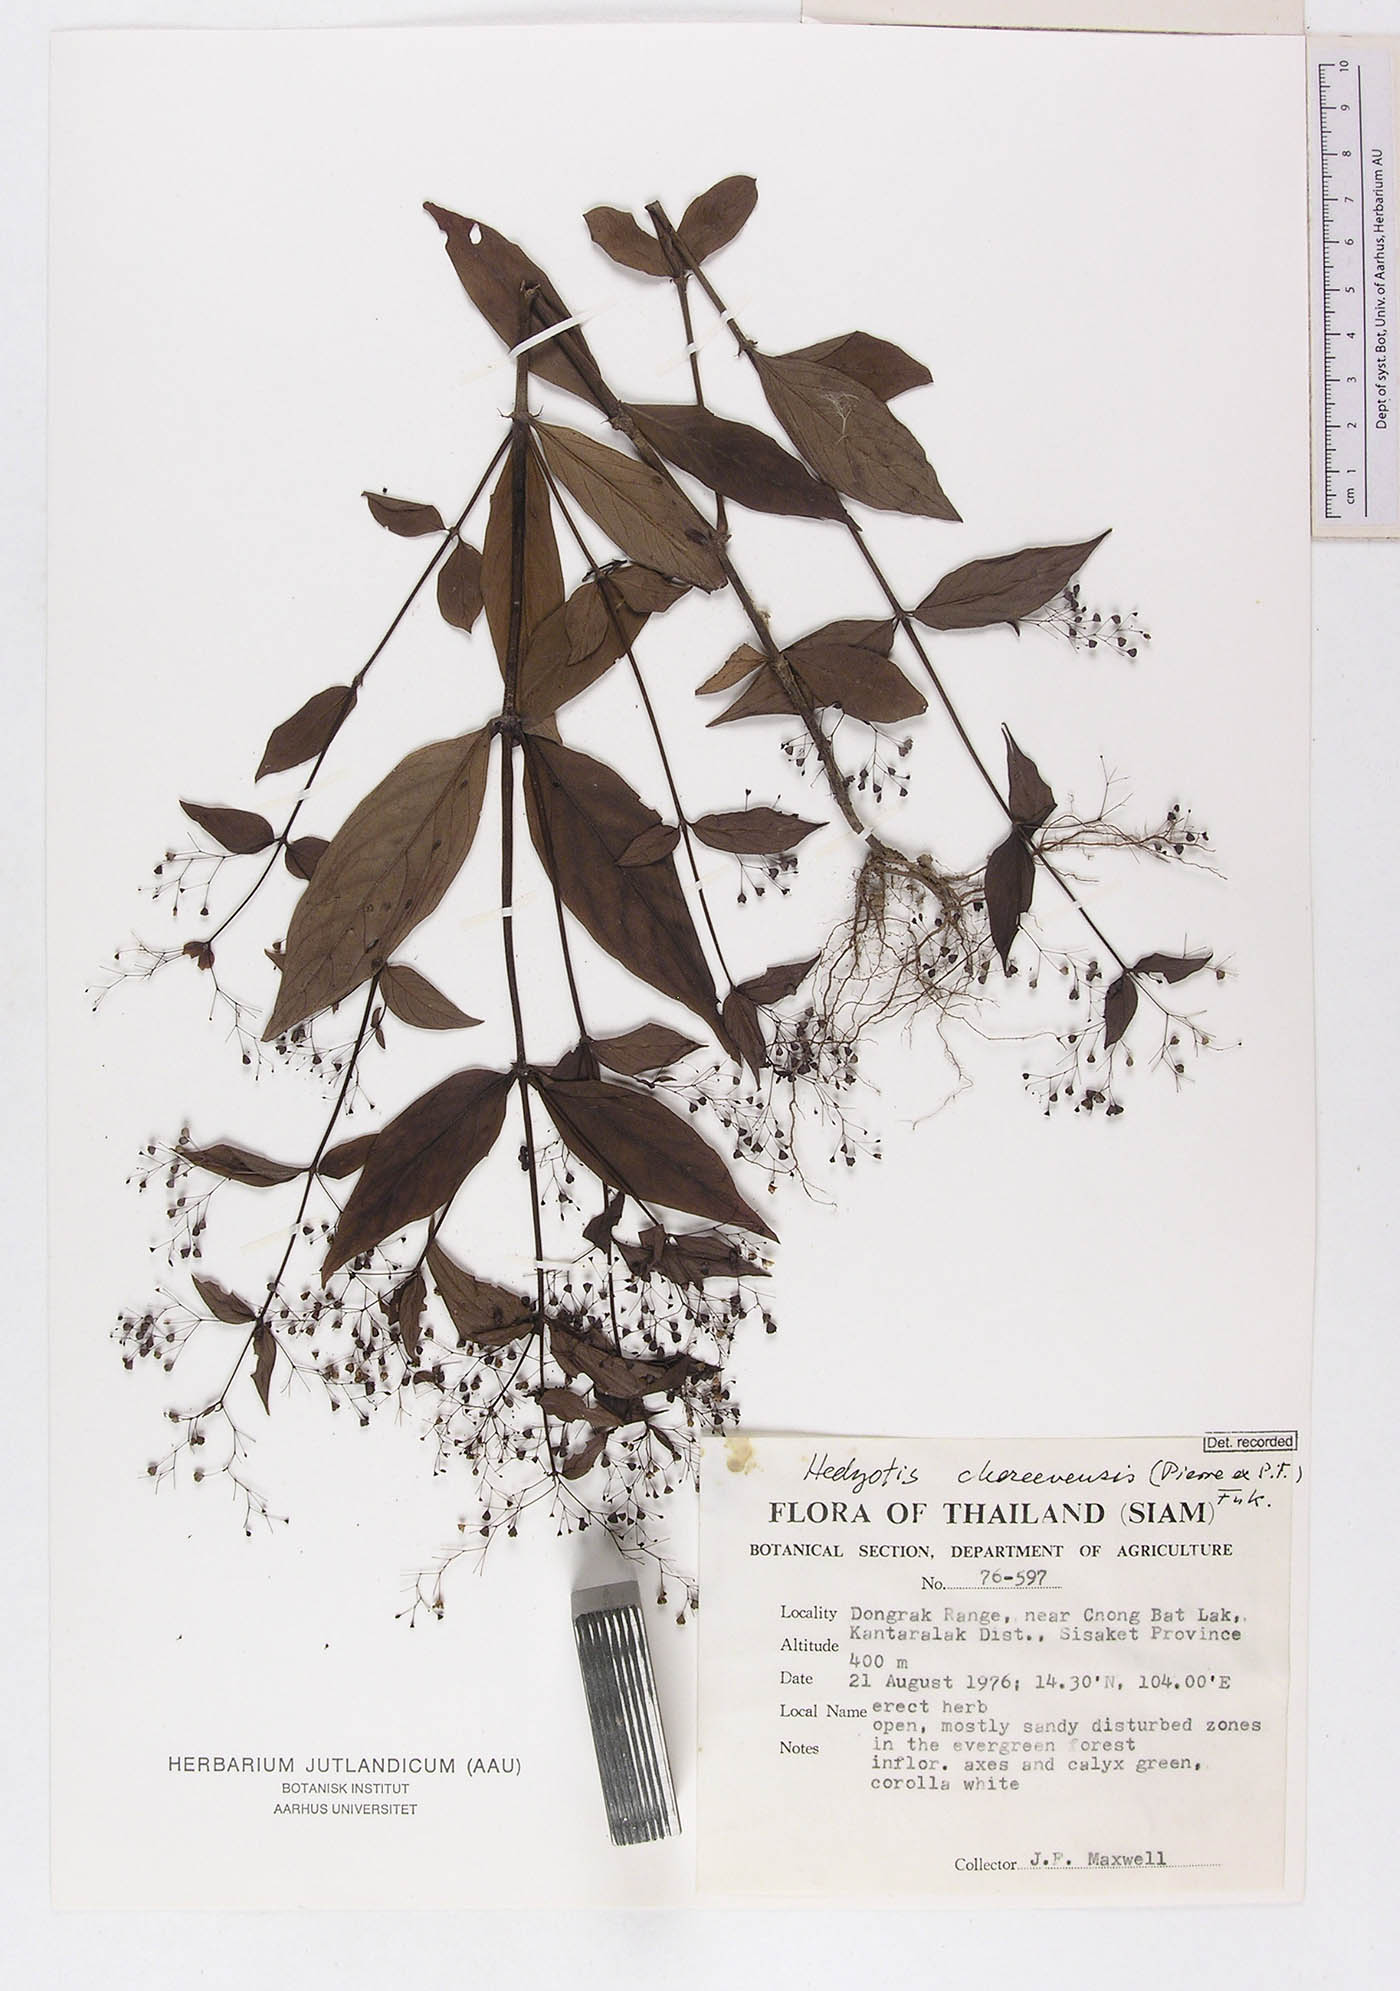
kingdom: Plantae
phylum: Tracheophyta
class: Magnoliopsida
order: Gentianales
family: Rubiaceae
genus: Involucrella
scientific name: Involucrella chereevensis
